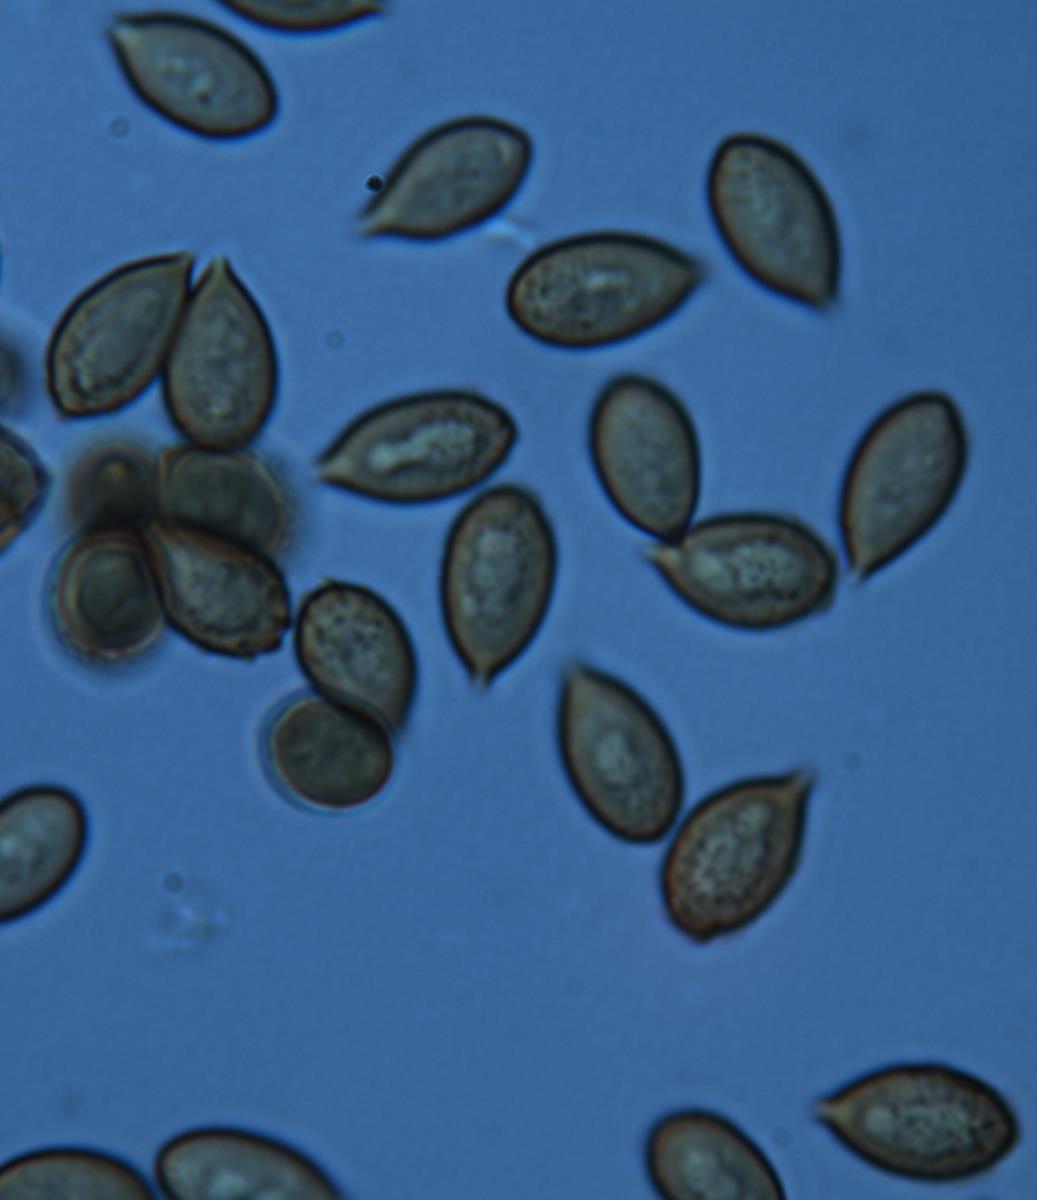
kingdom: Fungi
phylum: Basidiomycota
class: Agaricomycetes
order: Agaricales
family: Cortinariaceae
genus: Cortinarius
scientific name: Cortinarius anisodorus
